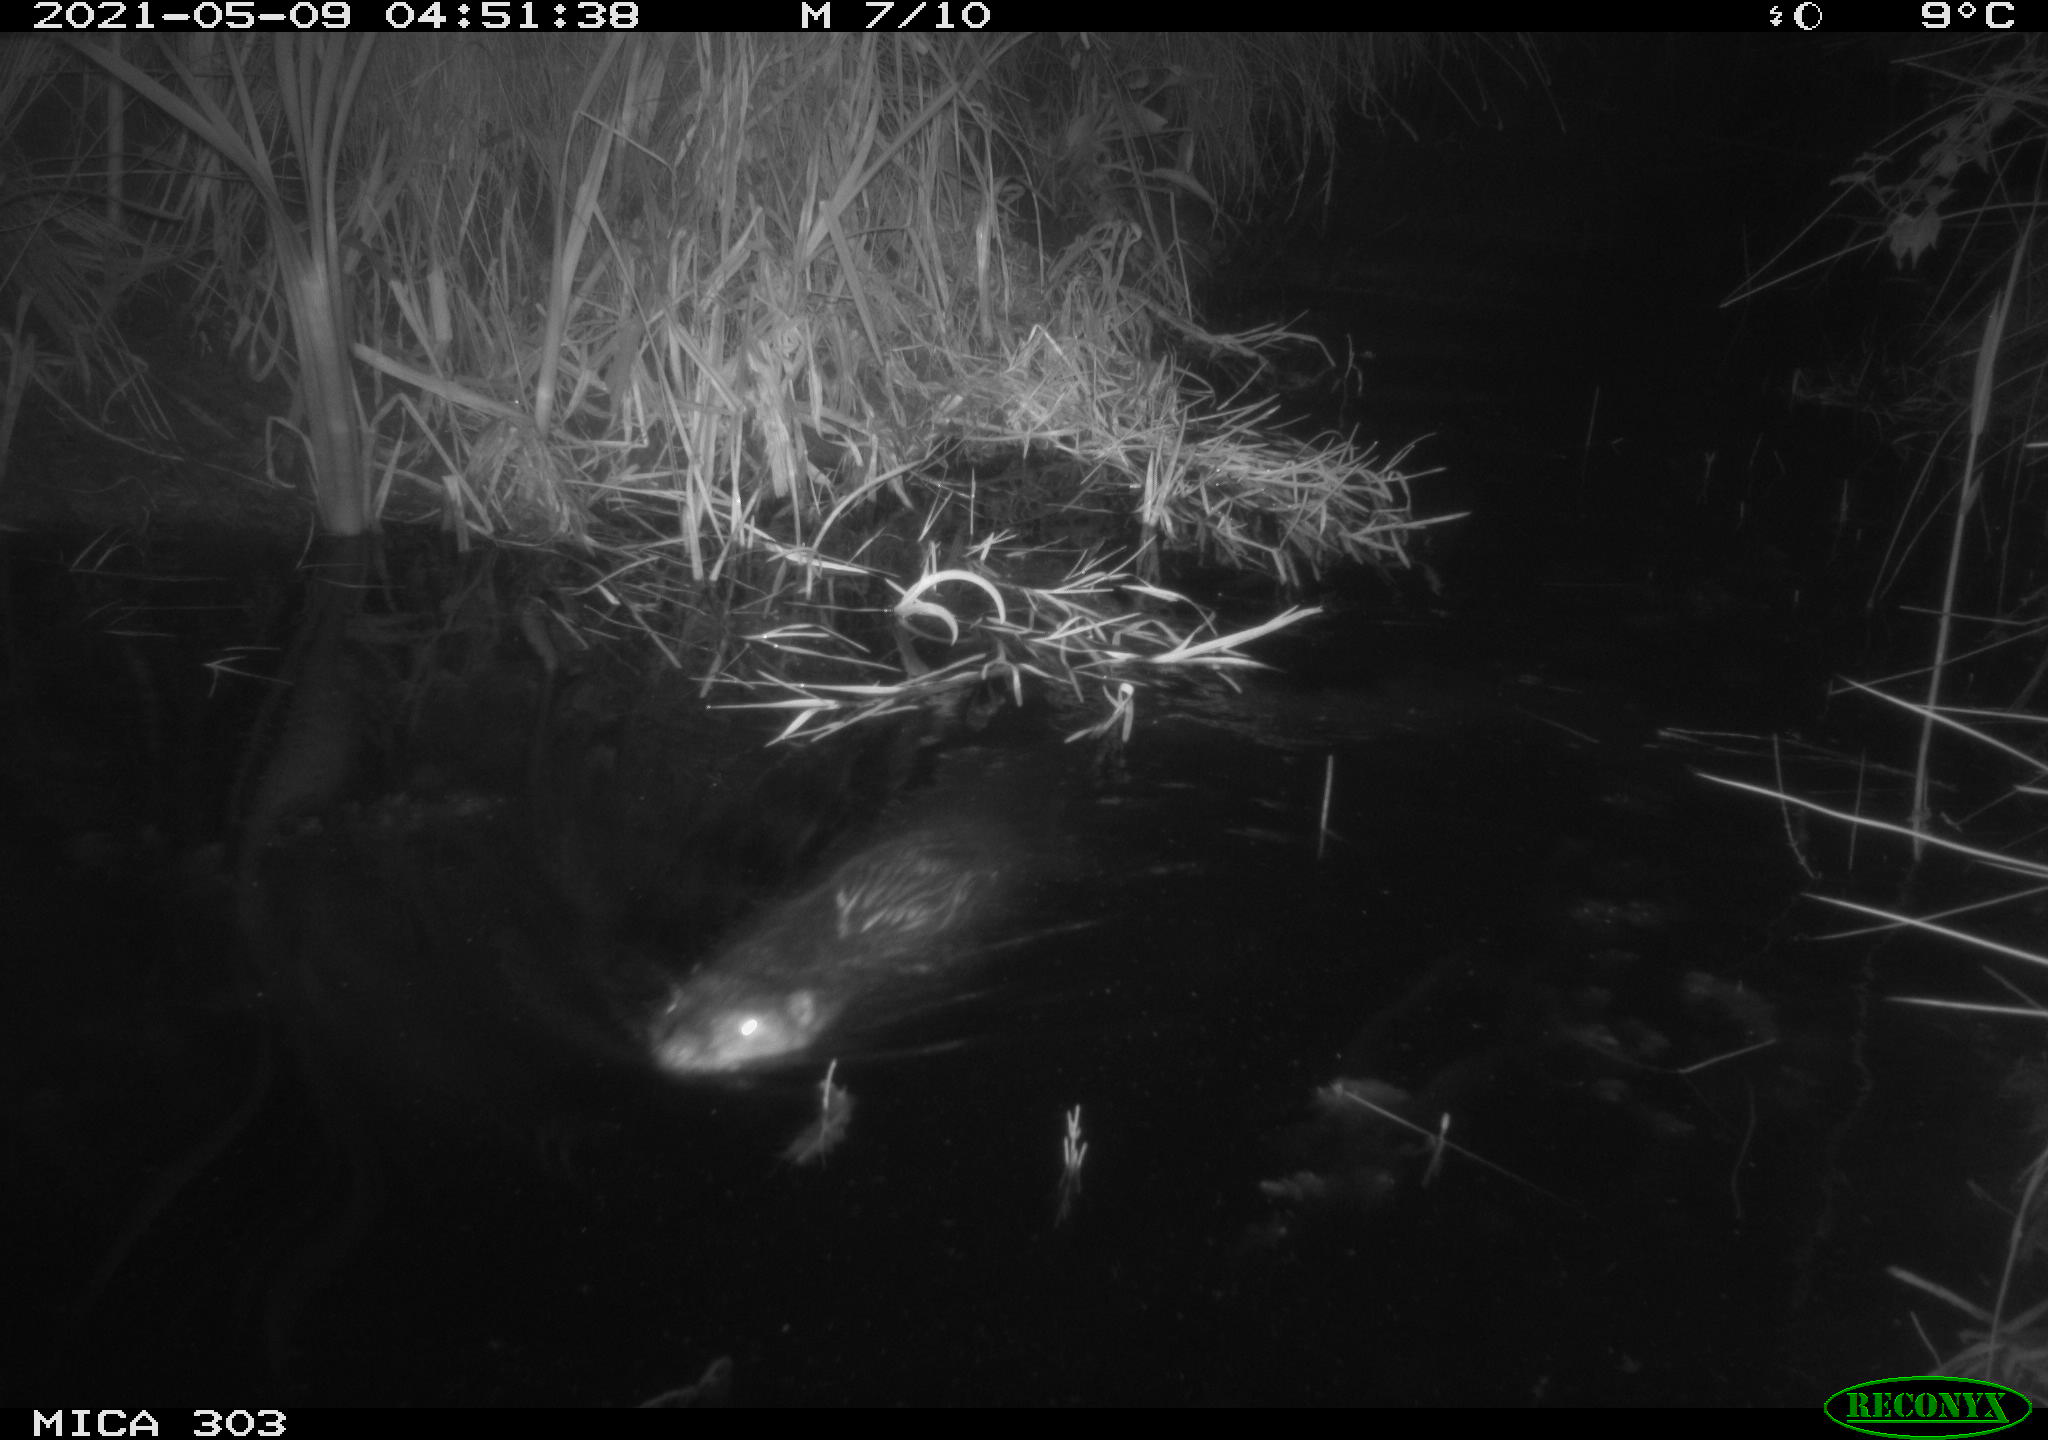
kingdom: Animalia
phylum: Chordata
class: Mammalia
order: Rodentia
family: Castoridae
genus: Castor
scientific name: Castor fiber
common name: Eurasian beaver
